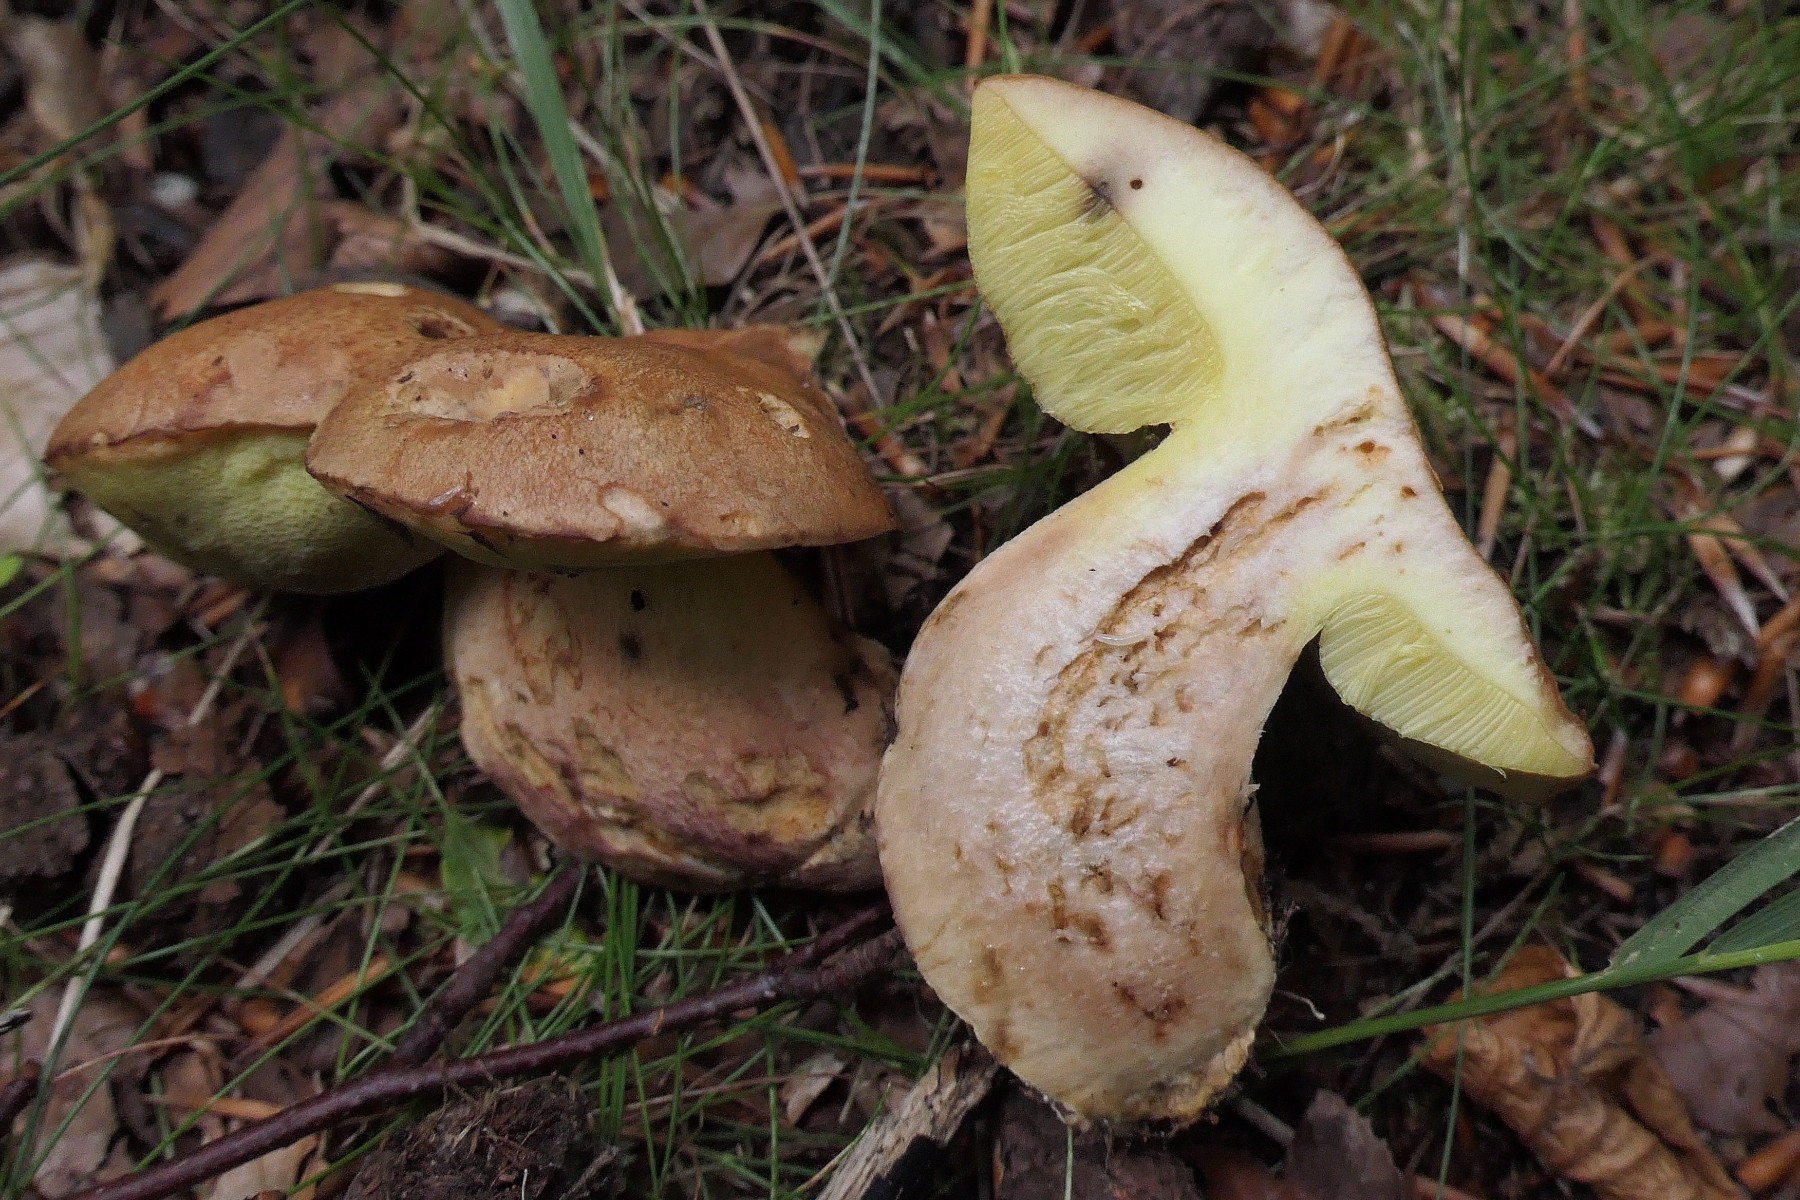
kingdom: Fungi
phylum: Basidiomycota
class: Agaricomycetes
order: Boletales
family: Boletaceae
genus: Butyriboletus
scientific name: Butyriboletus appendiculatus
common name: tenstokket rørhat
